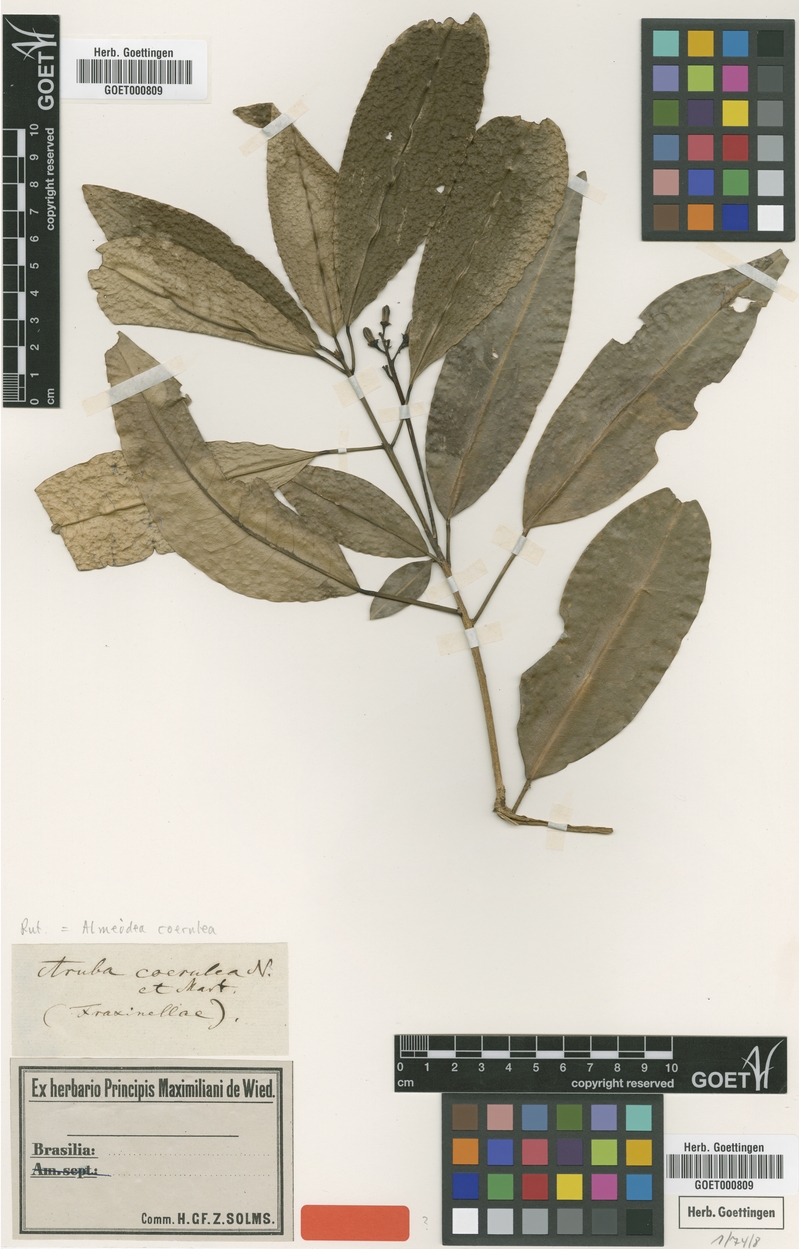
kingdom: Plantae
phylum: Tracheophyta
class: Magnoliopsida
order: Sapindales
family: Rutaceae
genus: Conchocarpus
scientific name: Conchocarpus coeruleus
